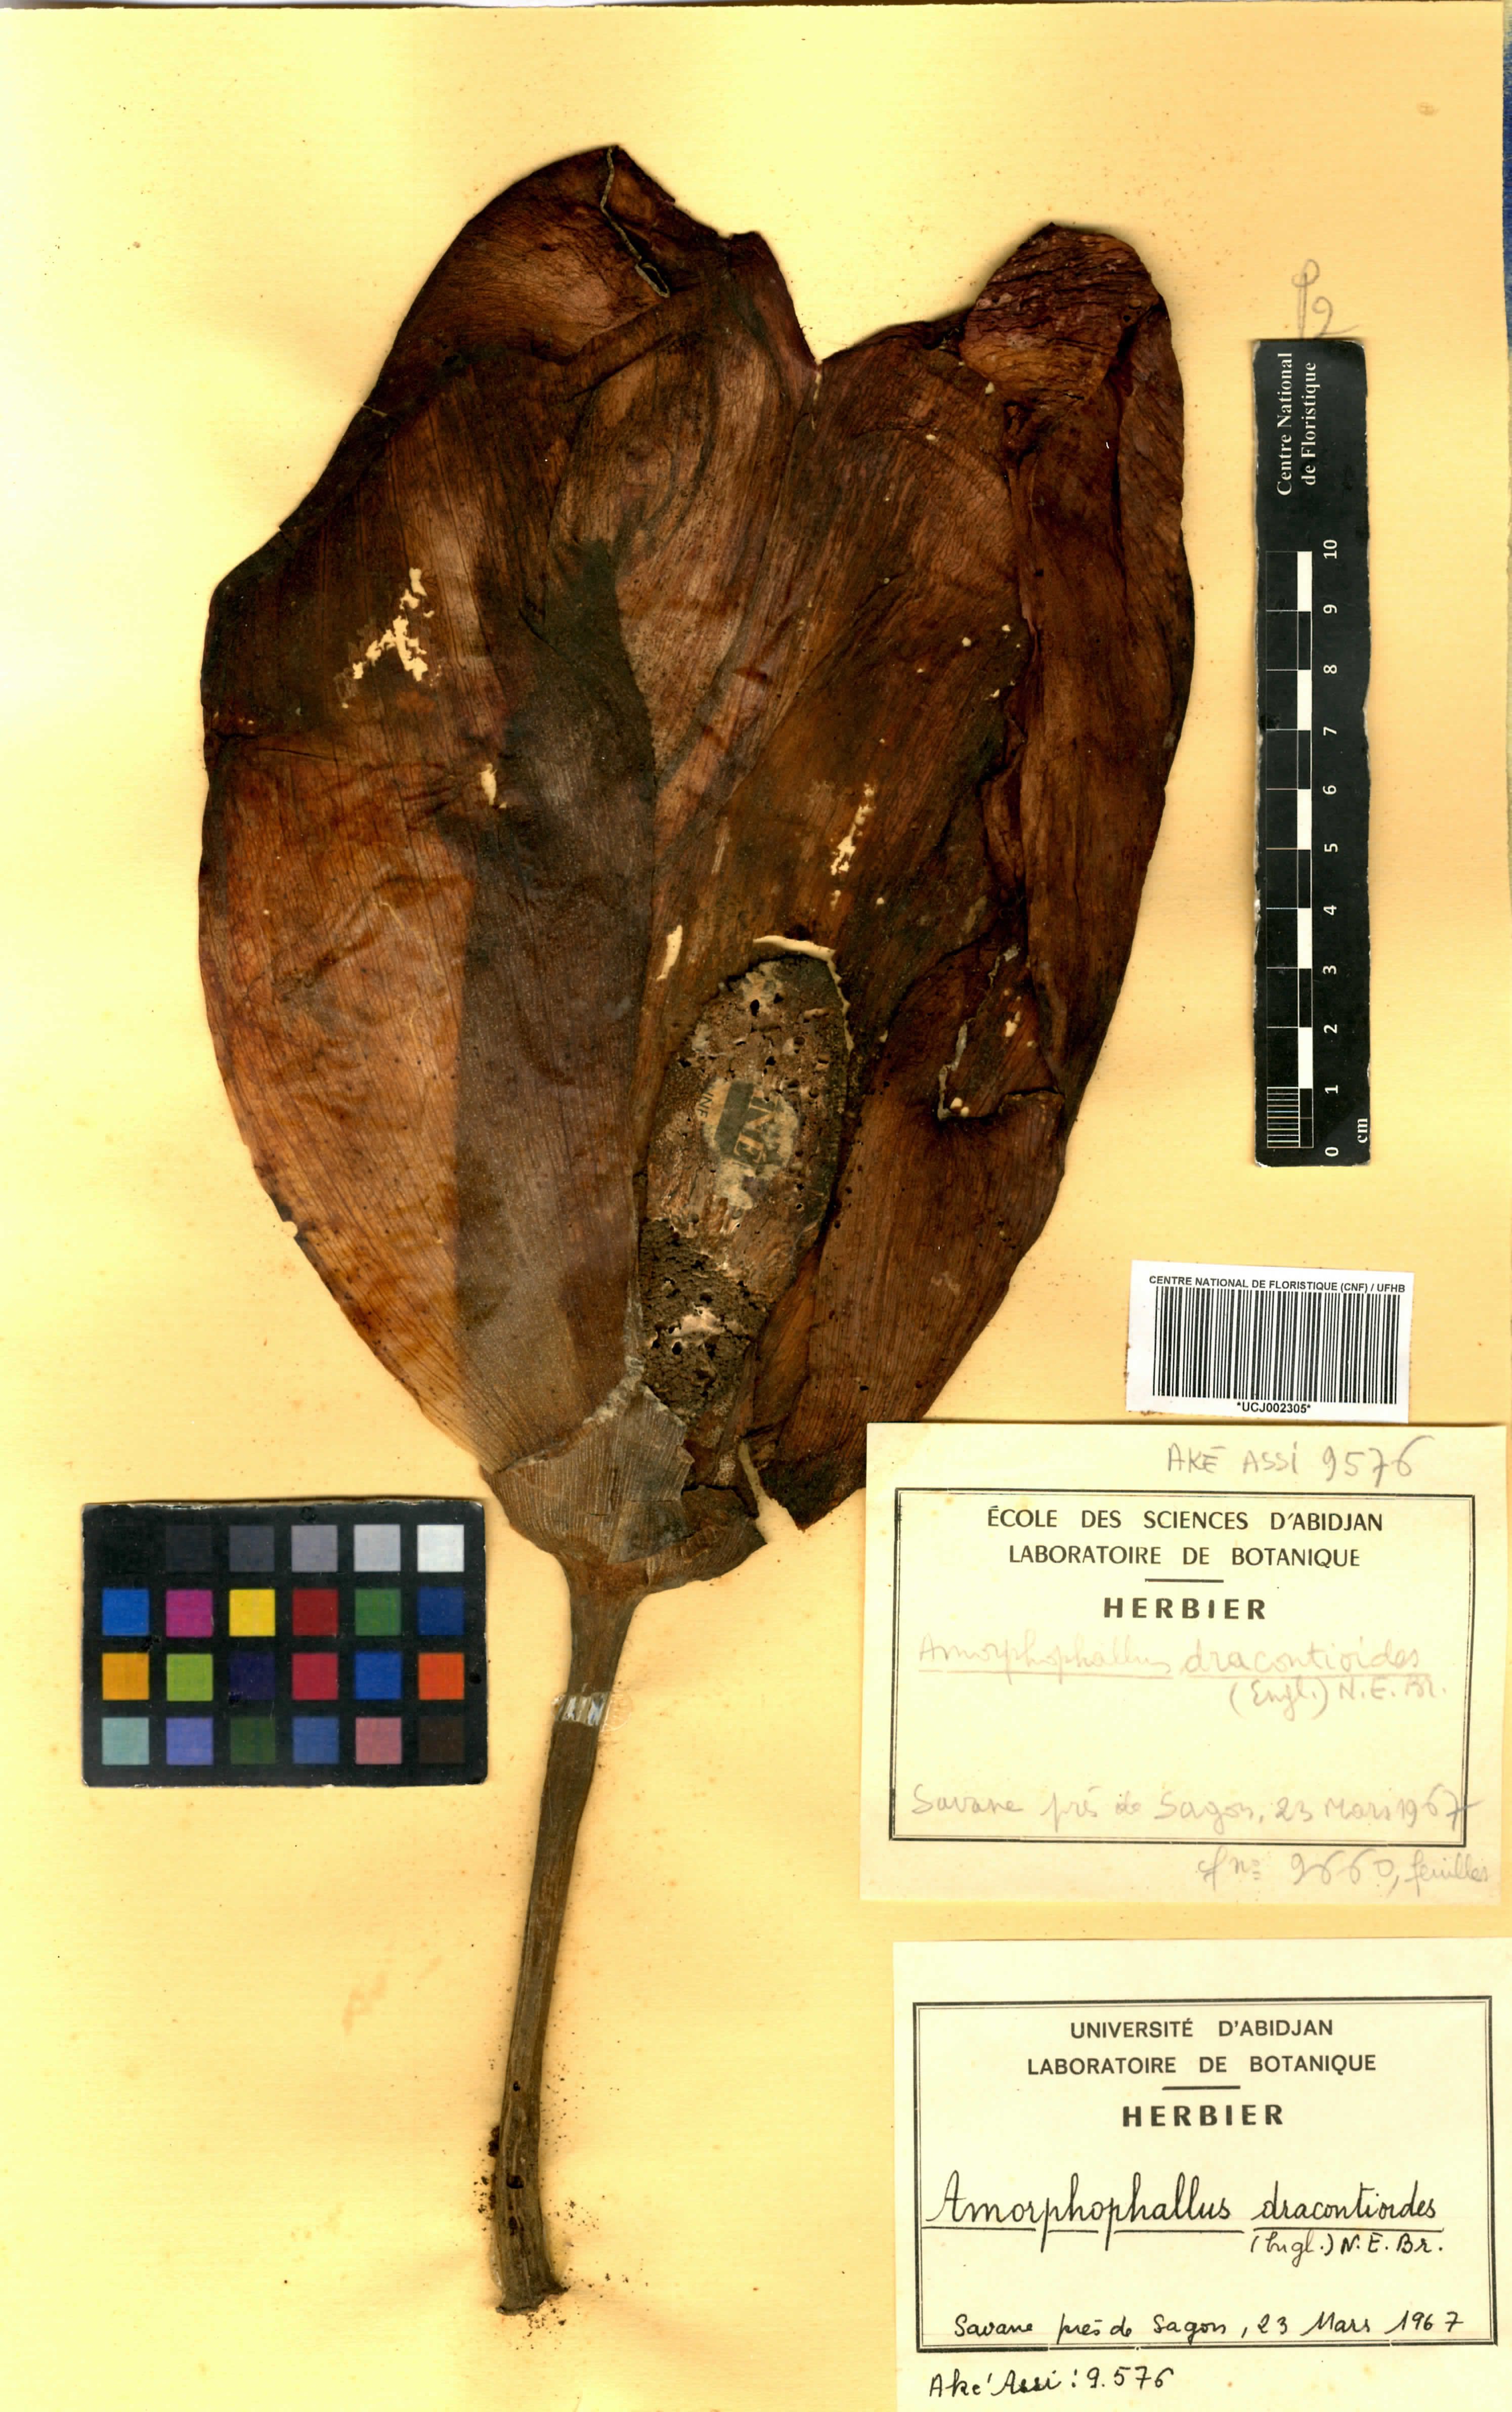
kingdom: Plantae
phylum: Tracheophyta
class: Liliopsida
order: Alismatales
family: Araceae
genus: Amorphophallus
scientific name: Amorphophallus dracontioides
